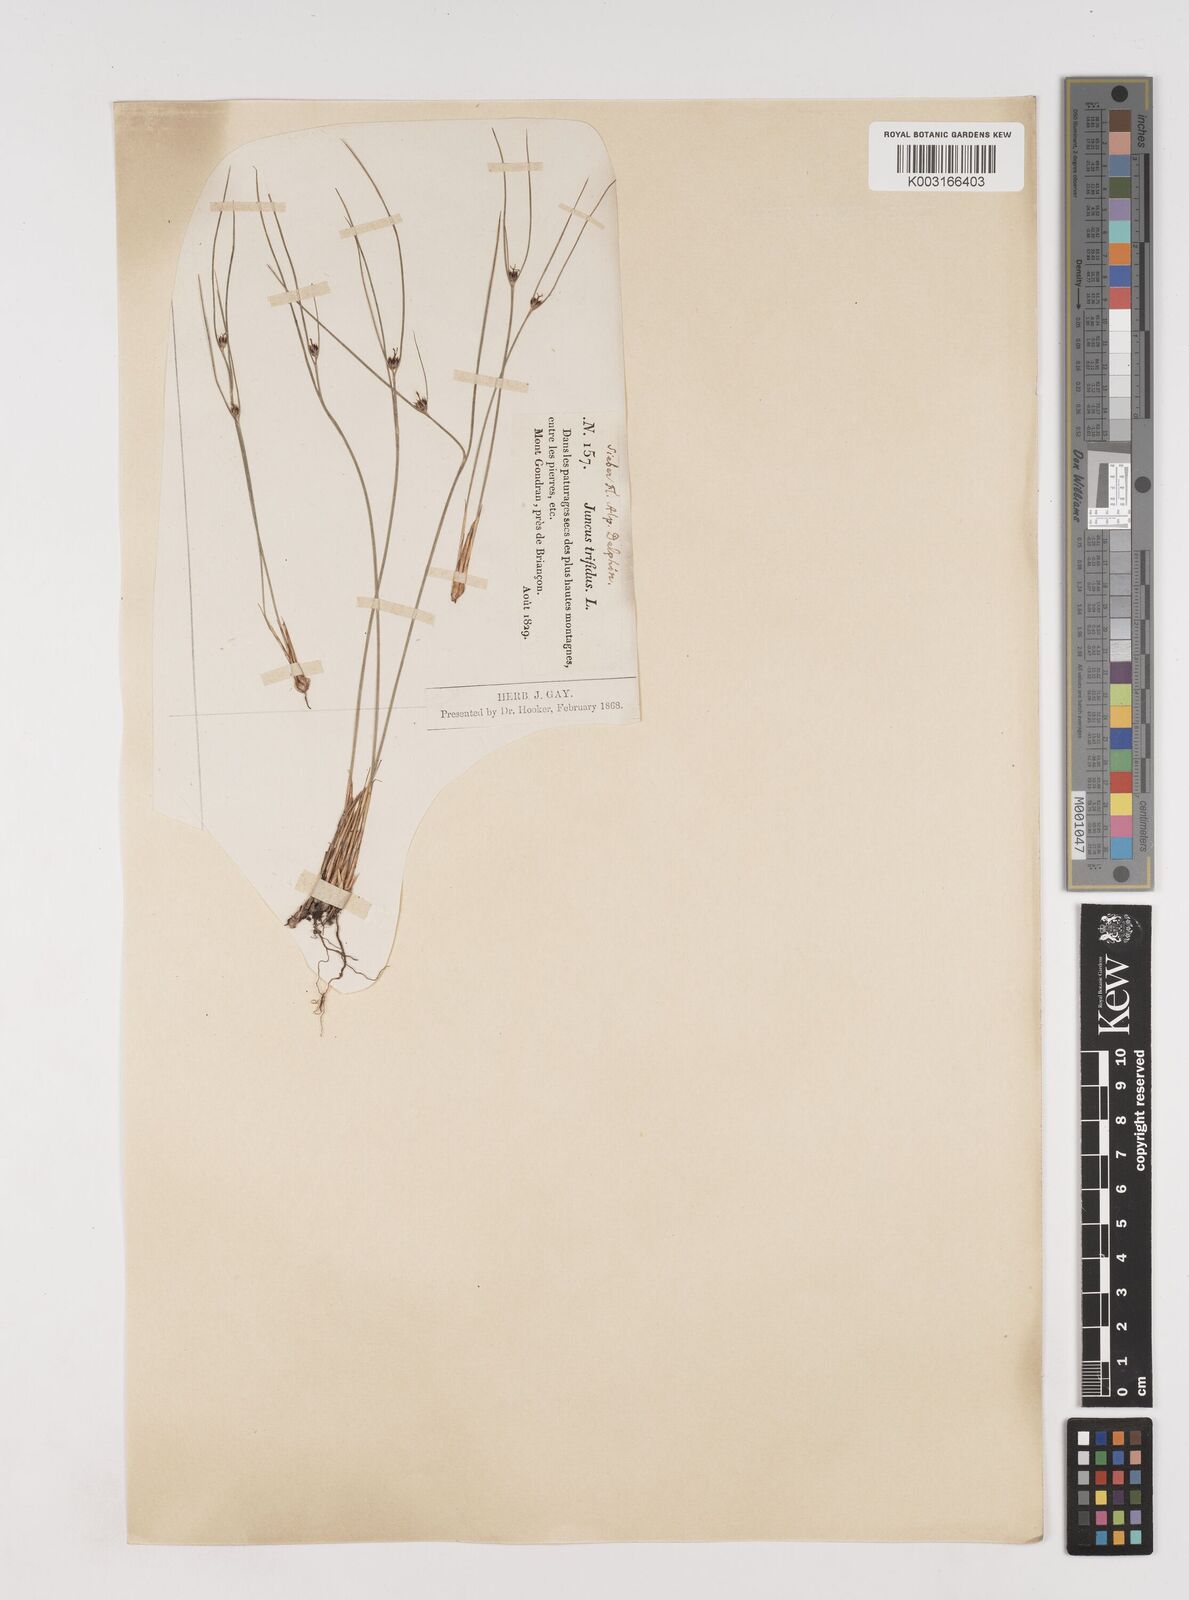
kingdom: Plantae
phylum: Tracheophyta
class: Liliopsida
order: Poales
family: Juncaceae
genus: Oreojuncus
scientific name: Oreojuncus trifidus
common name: Highland rush
